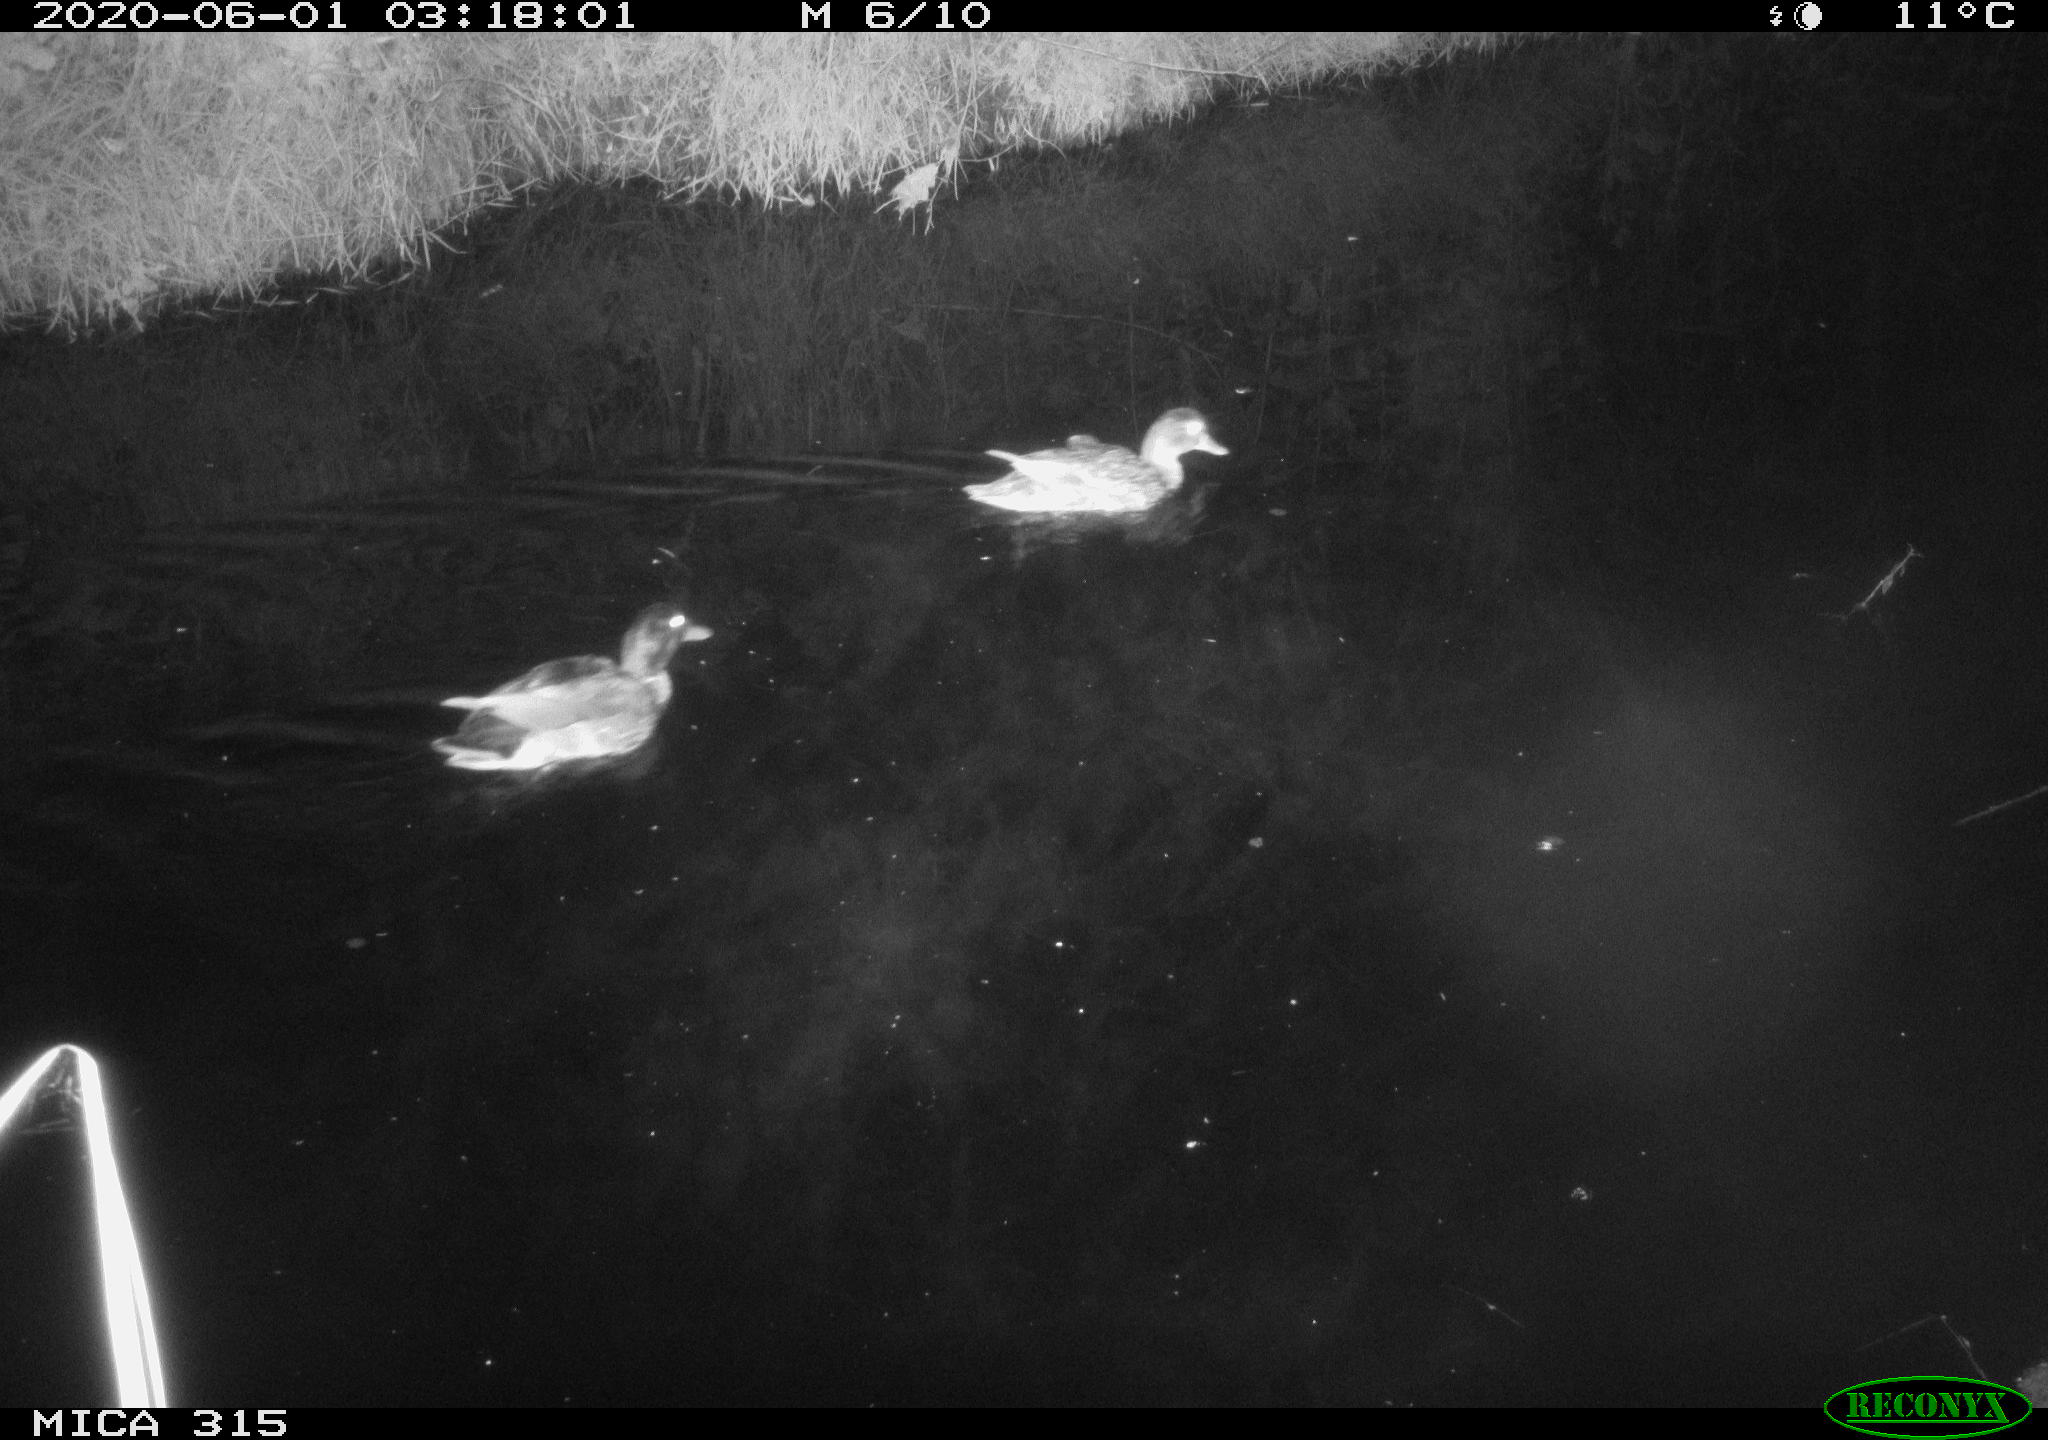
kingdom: Animalia
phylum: Chordata
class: Aves
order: Anseriformes
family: Anatidae
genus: Anas
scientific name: Anas platyrhynchos
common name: Mallard
